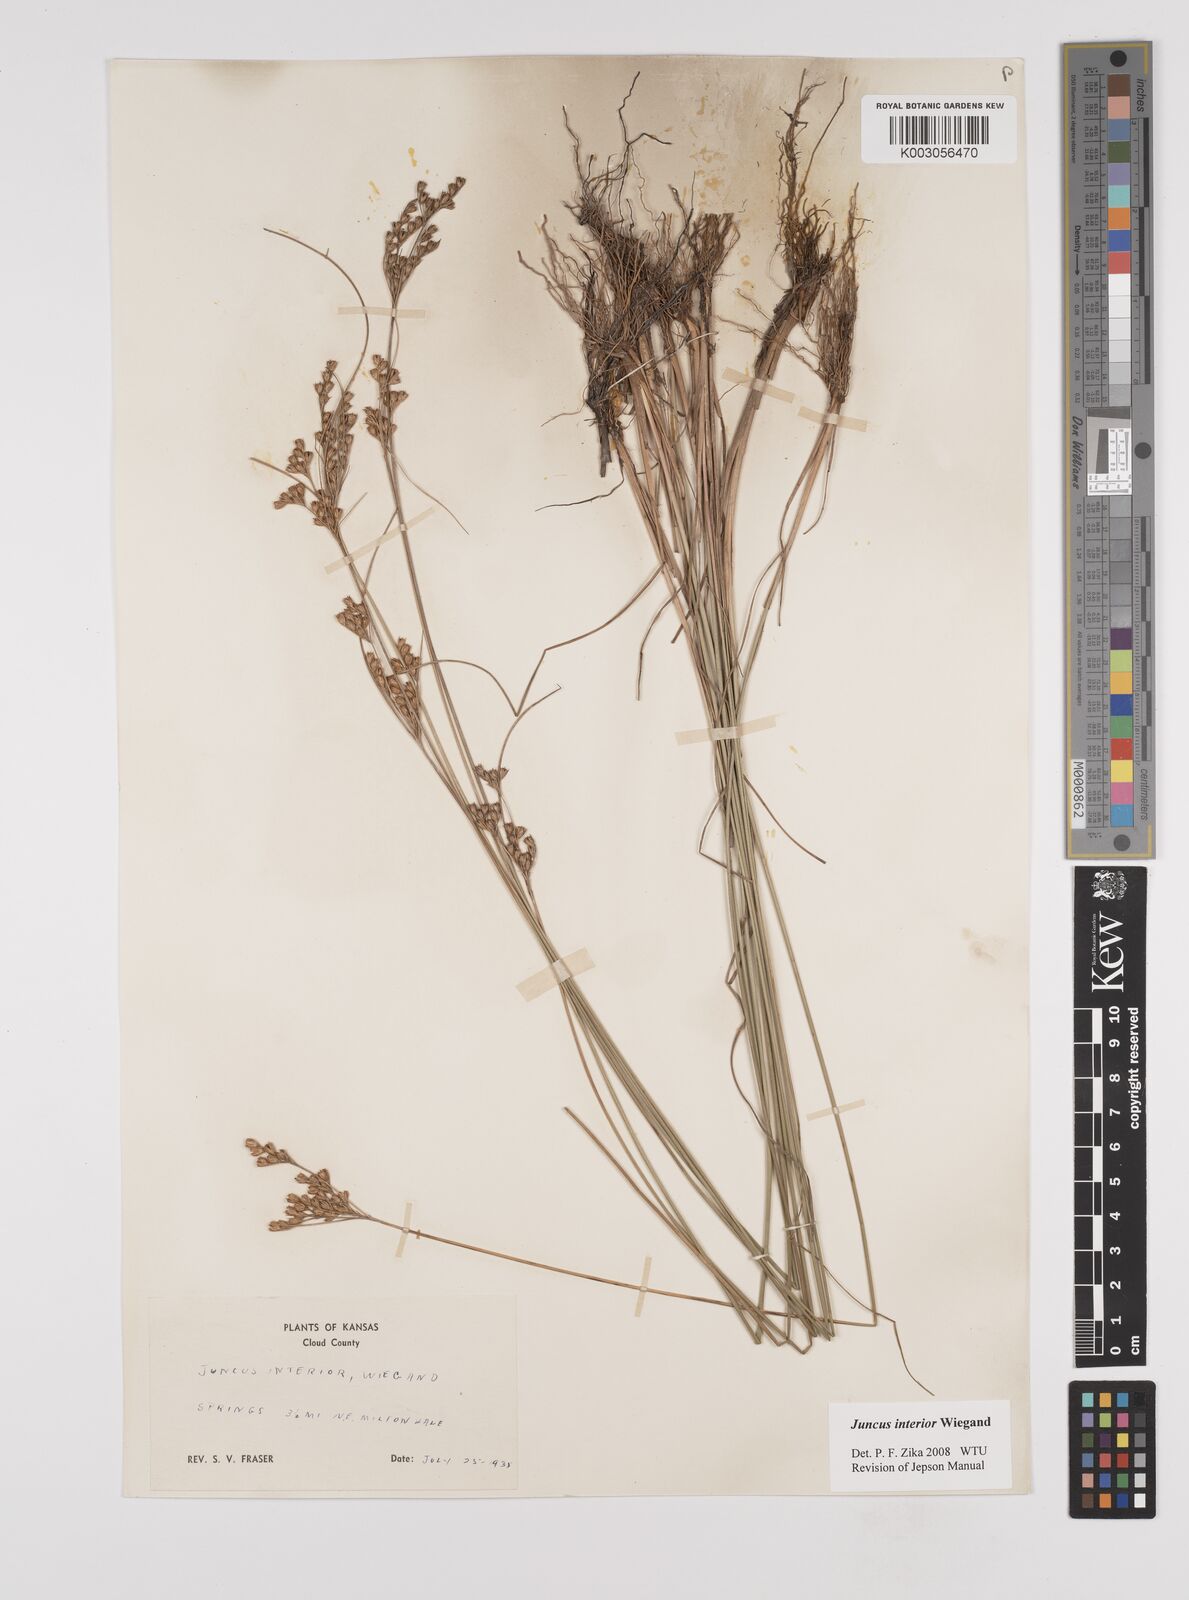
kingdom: Plantae
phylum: Tracheophyta
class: Liliopsida
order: Poales
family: Juncaceae
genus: Juncus
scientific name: Juncus interior
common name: Interior rush
